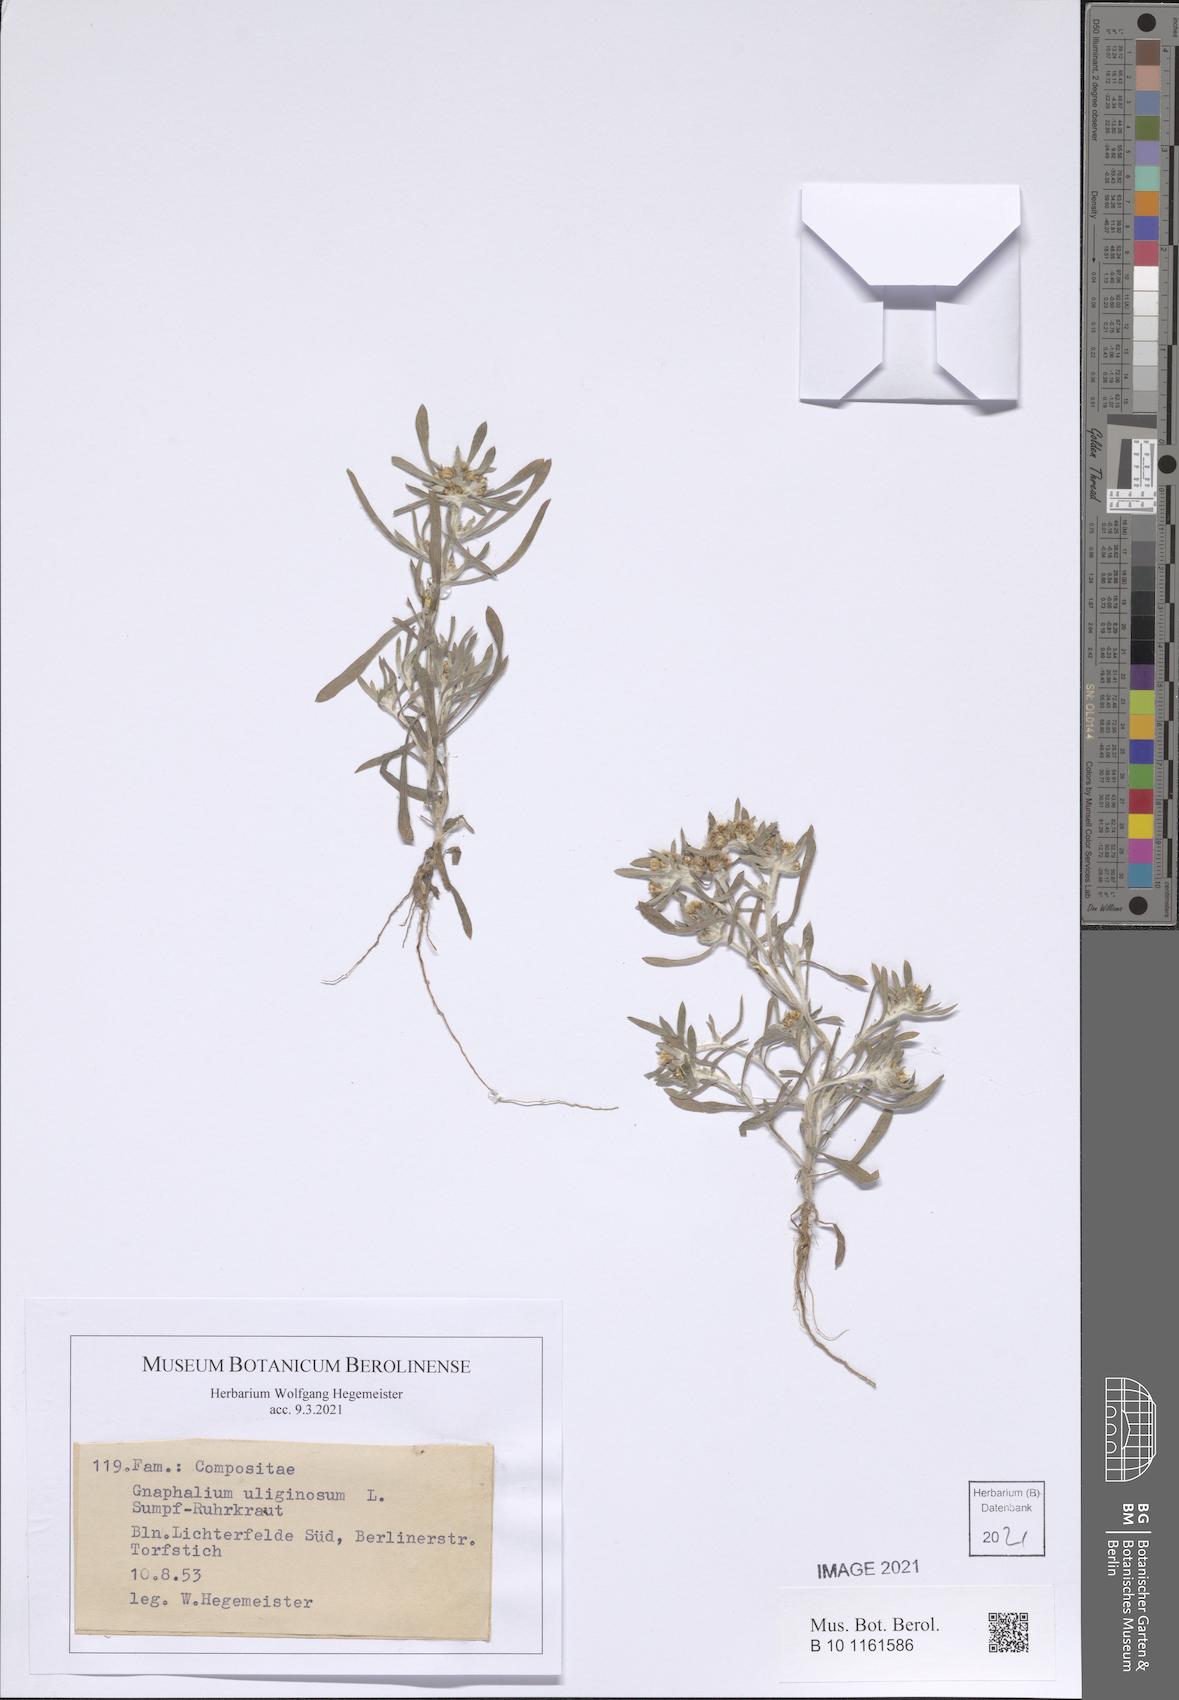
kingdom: Plantae
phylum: Tracheophyta
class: Magnoliopsida
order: Asterales
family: Asteraceae
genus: Gnaphalium
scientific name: Gnaphalium uliginosum
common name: Marsh cudweed
